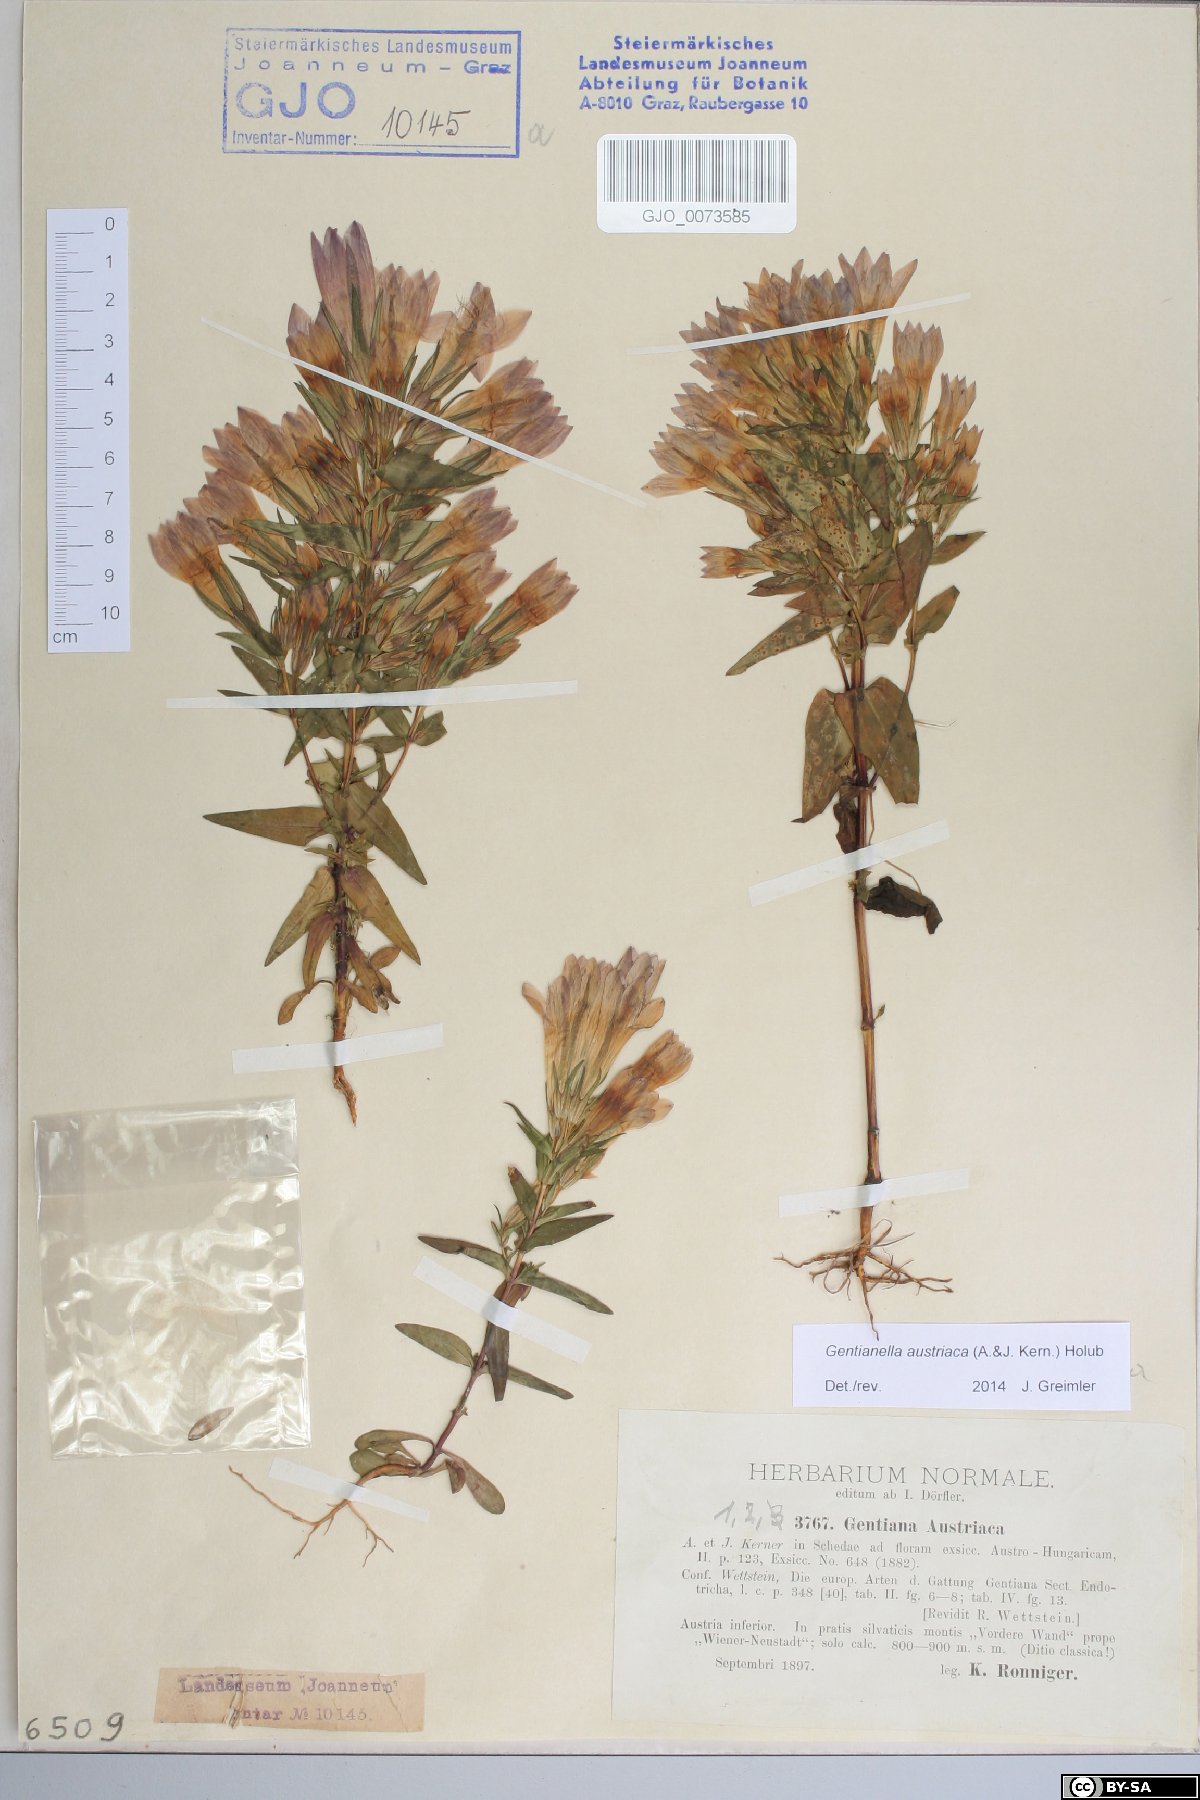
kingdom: Plantae
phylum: Tracheophyta
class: Magnoliopsida
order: Gentianales
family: Gentianaceae
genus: Gentianella
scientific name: Gentianella austriaca
